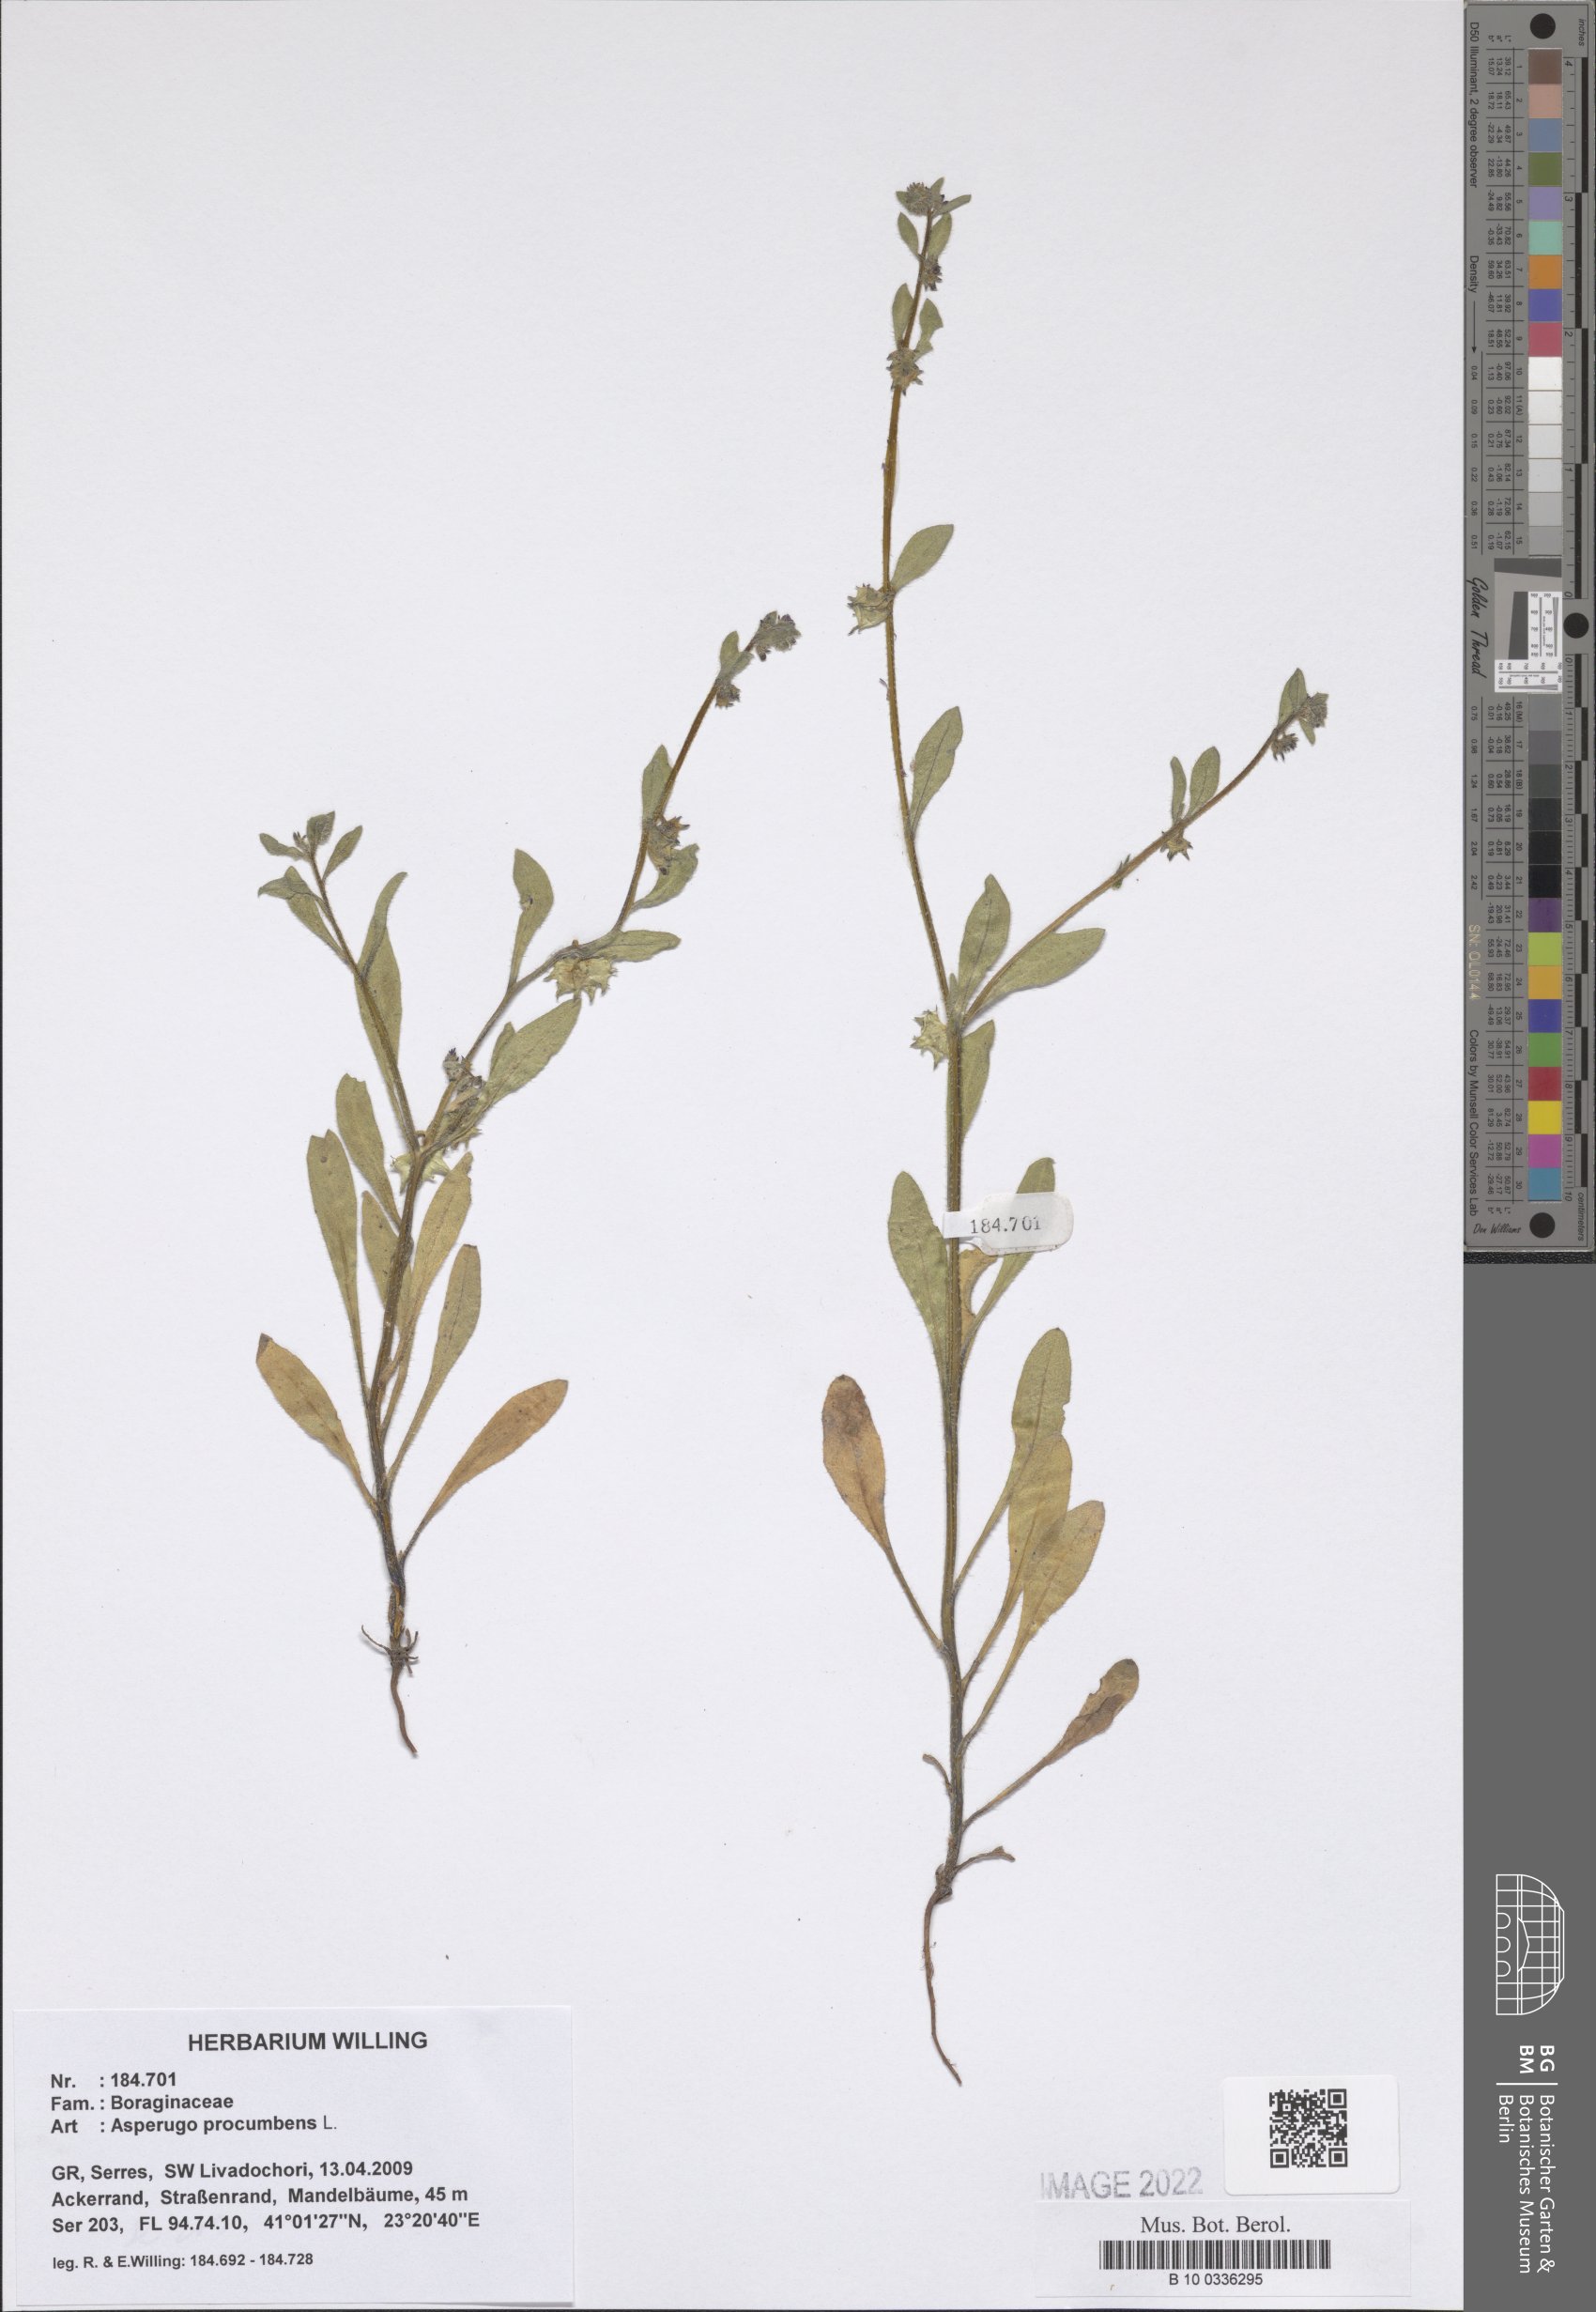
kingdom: Plantae
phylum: Tracheophyta
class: Magnoliopsida
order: Boraginales
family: Boraginaceae
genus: Asperugo
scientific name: Asperugo procumbens
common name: Madwort
